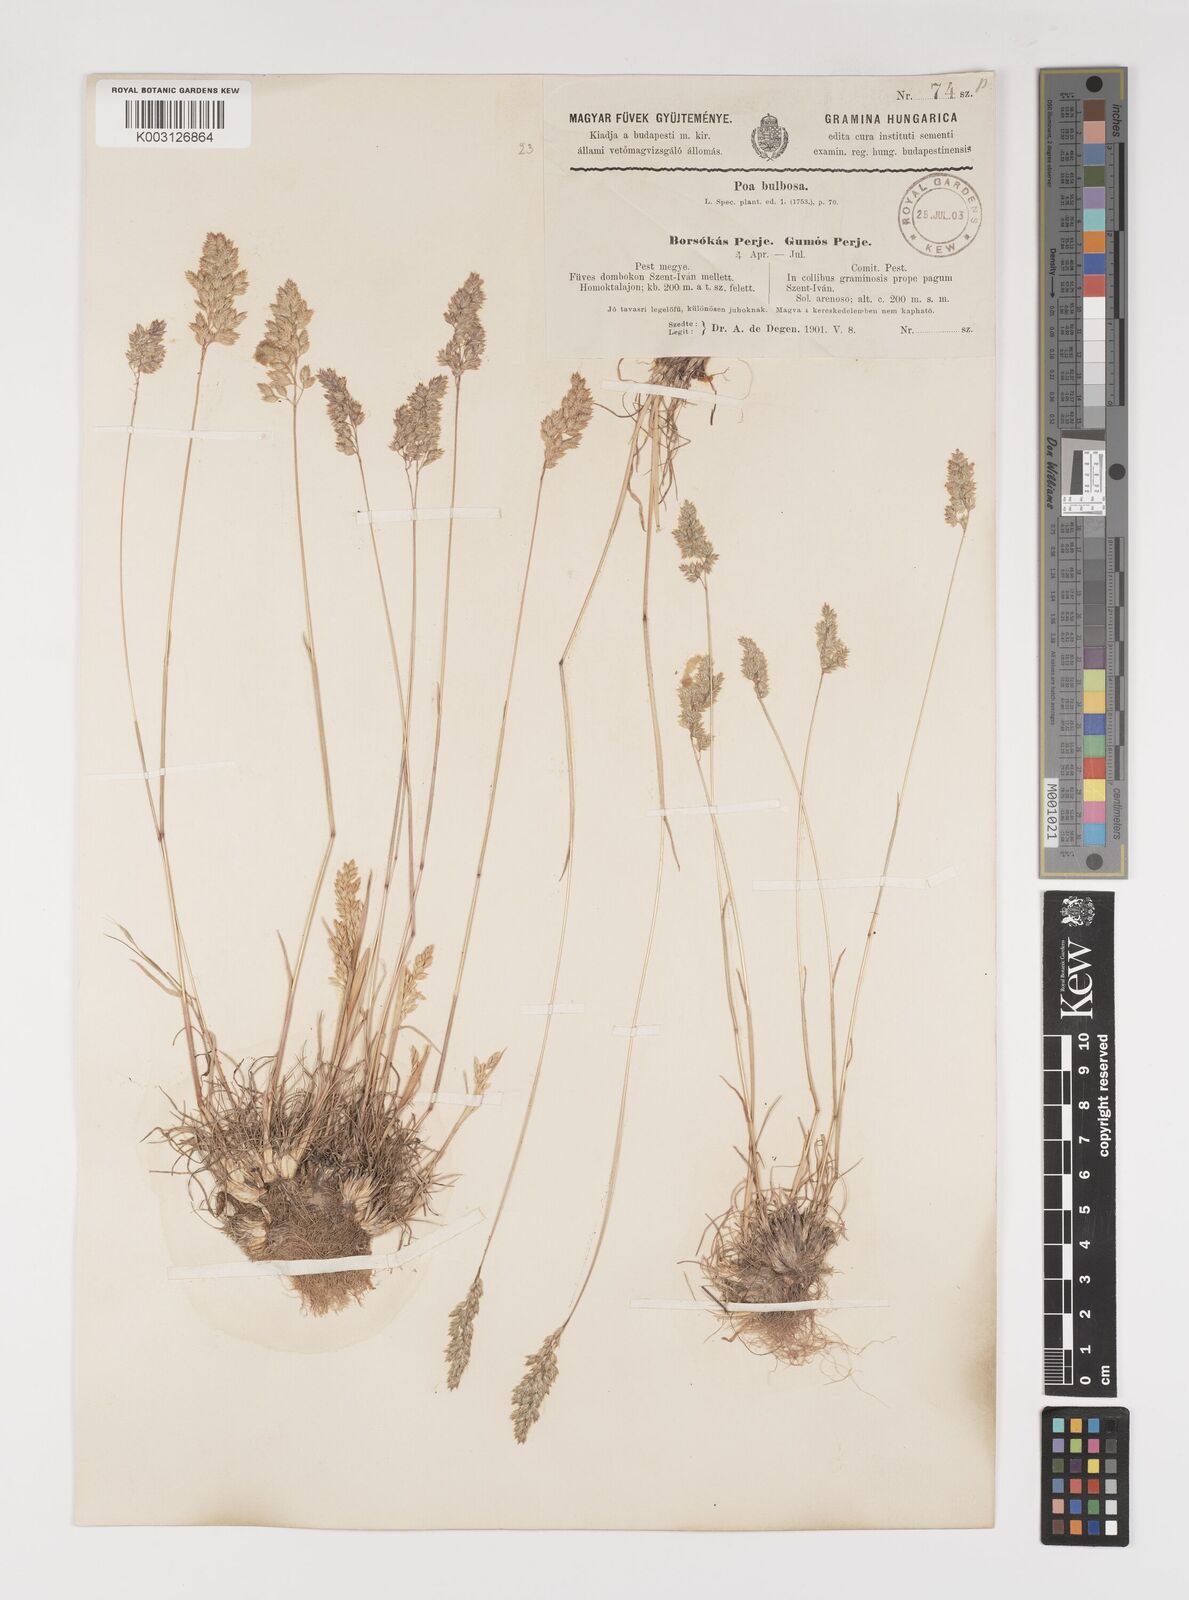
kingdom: Plantae
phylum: Tracheophyta
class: Liliopsida
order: Poales
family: Poaceae
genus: Poa
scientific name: Poa bulbosa
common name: Bulbous bluegrass
